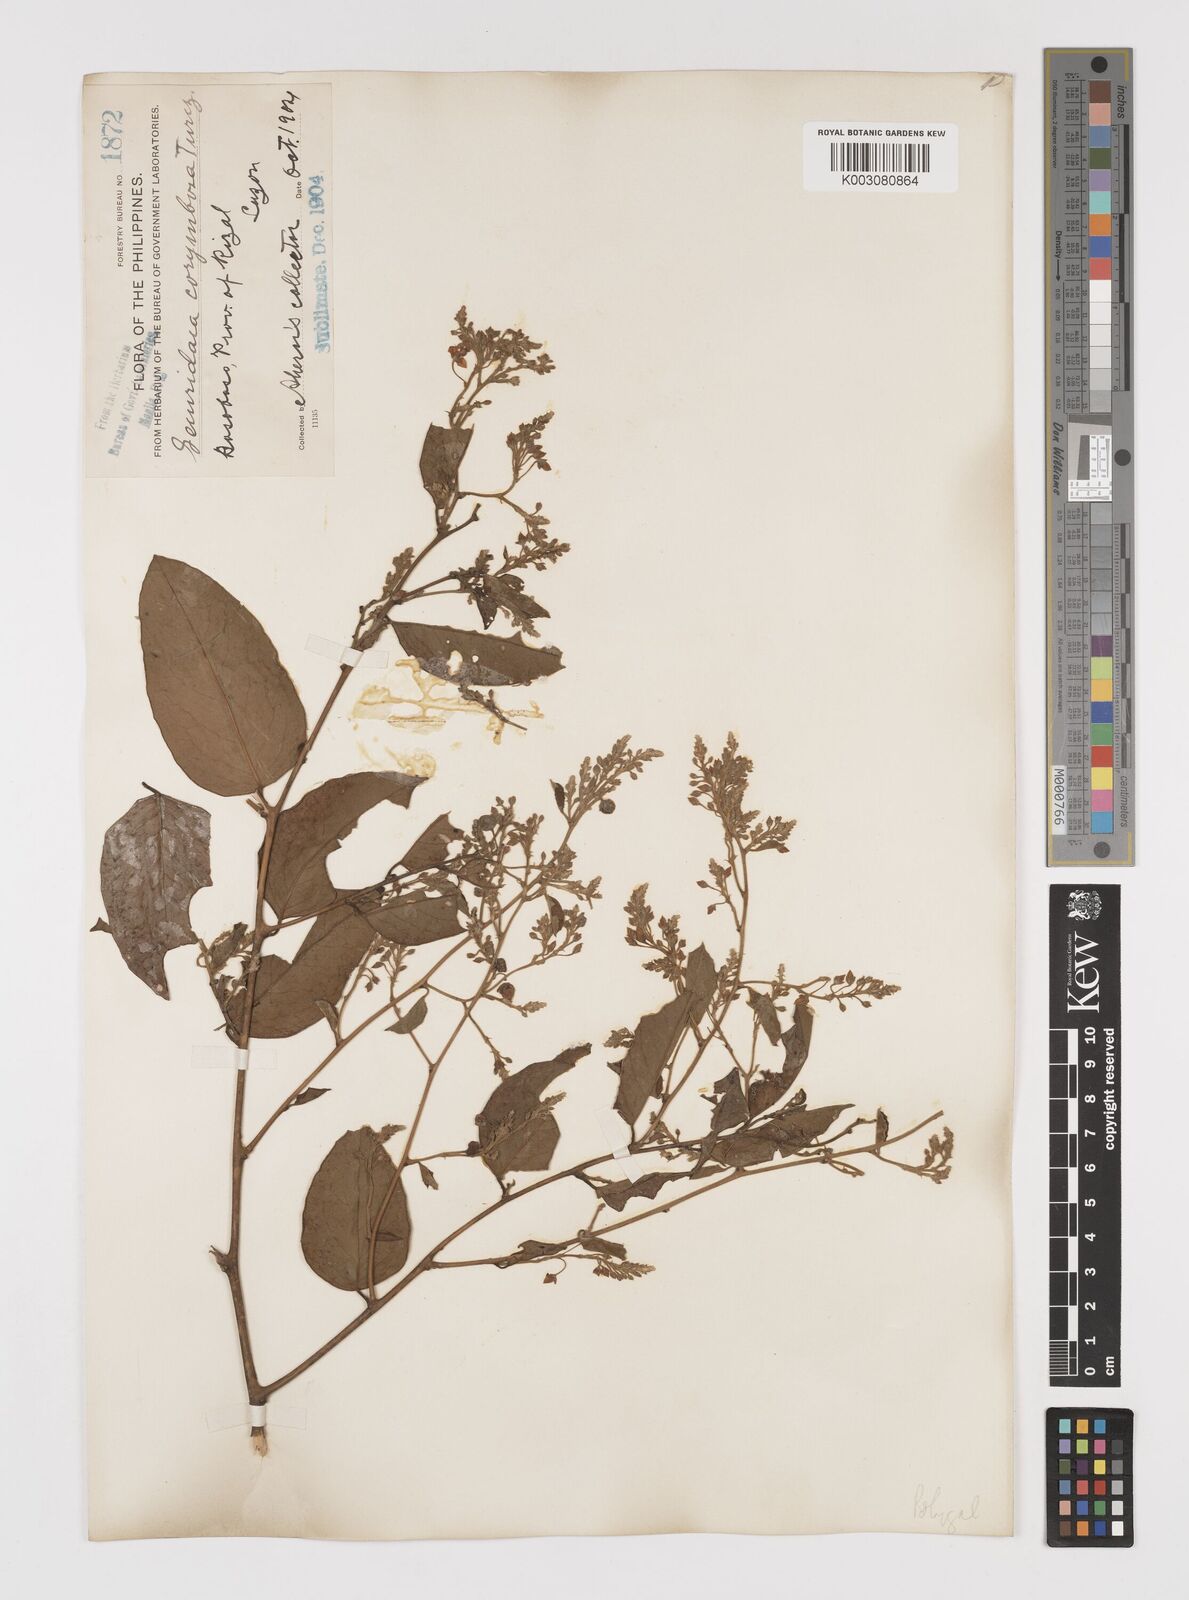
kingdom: Plantae
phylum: Tracheophyta
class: Magnoliopsida
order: Fabales
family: Polygalaceae
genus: Securidaca
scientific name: Securidaca inappendiculata
